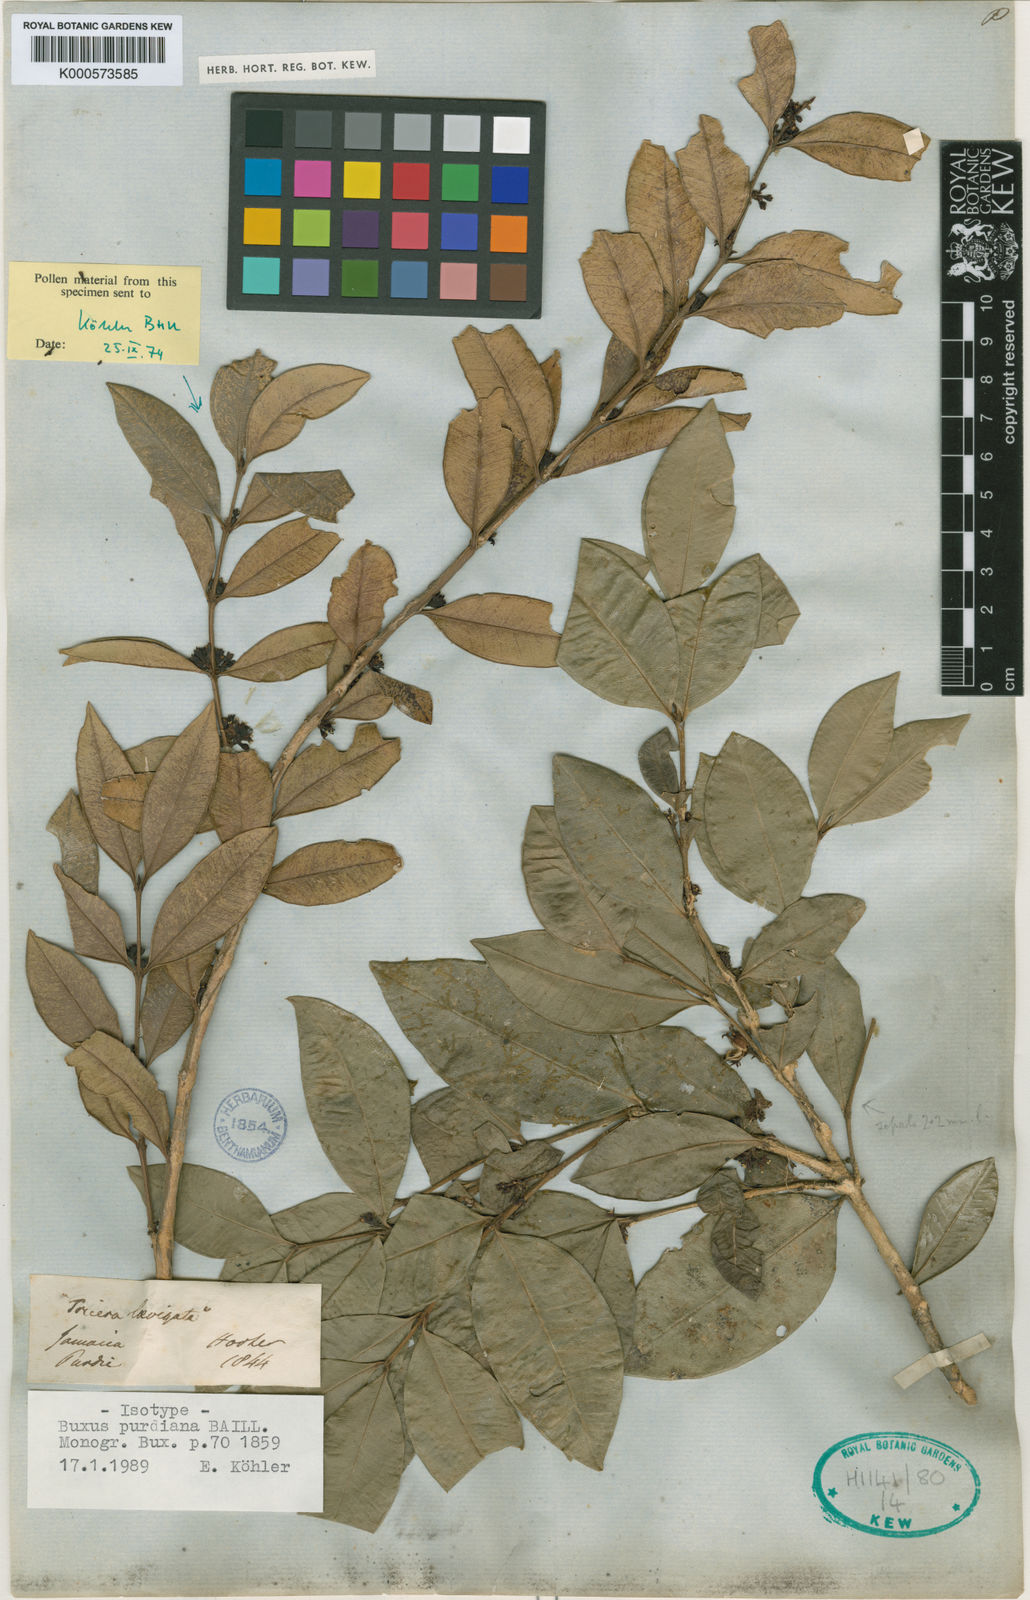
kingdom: Plantae
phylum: Tracheophyta
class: Magnoliopsida
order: Buxales
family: Buxaceae
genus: Buxus
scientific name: Buxus laevigata
